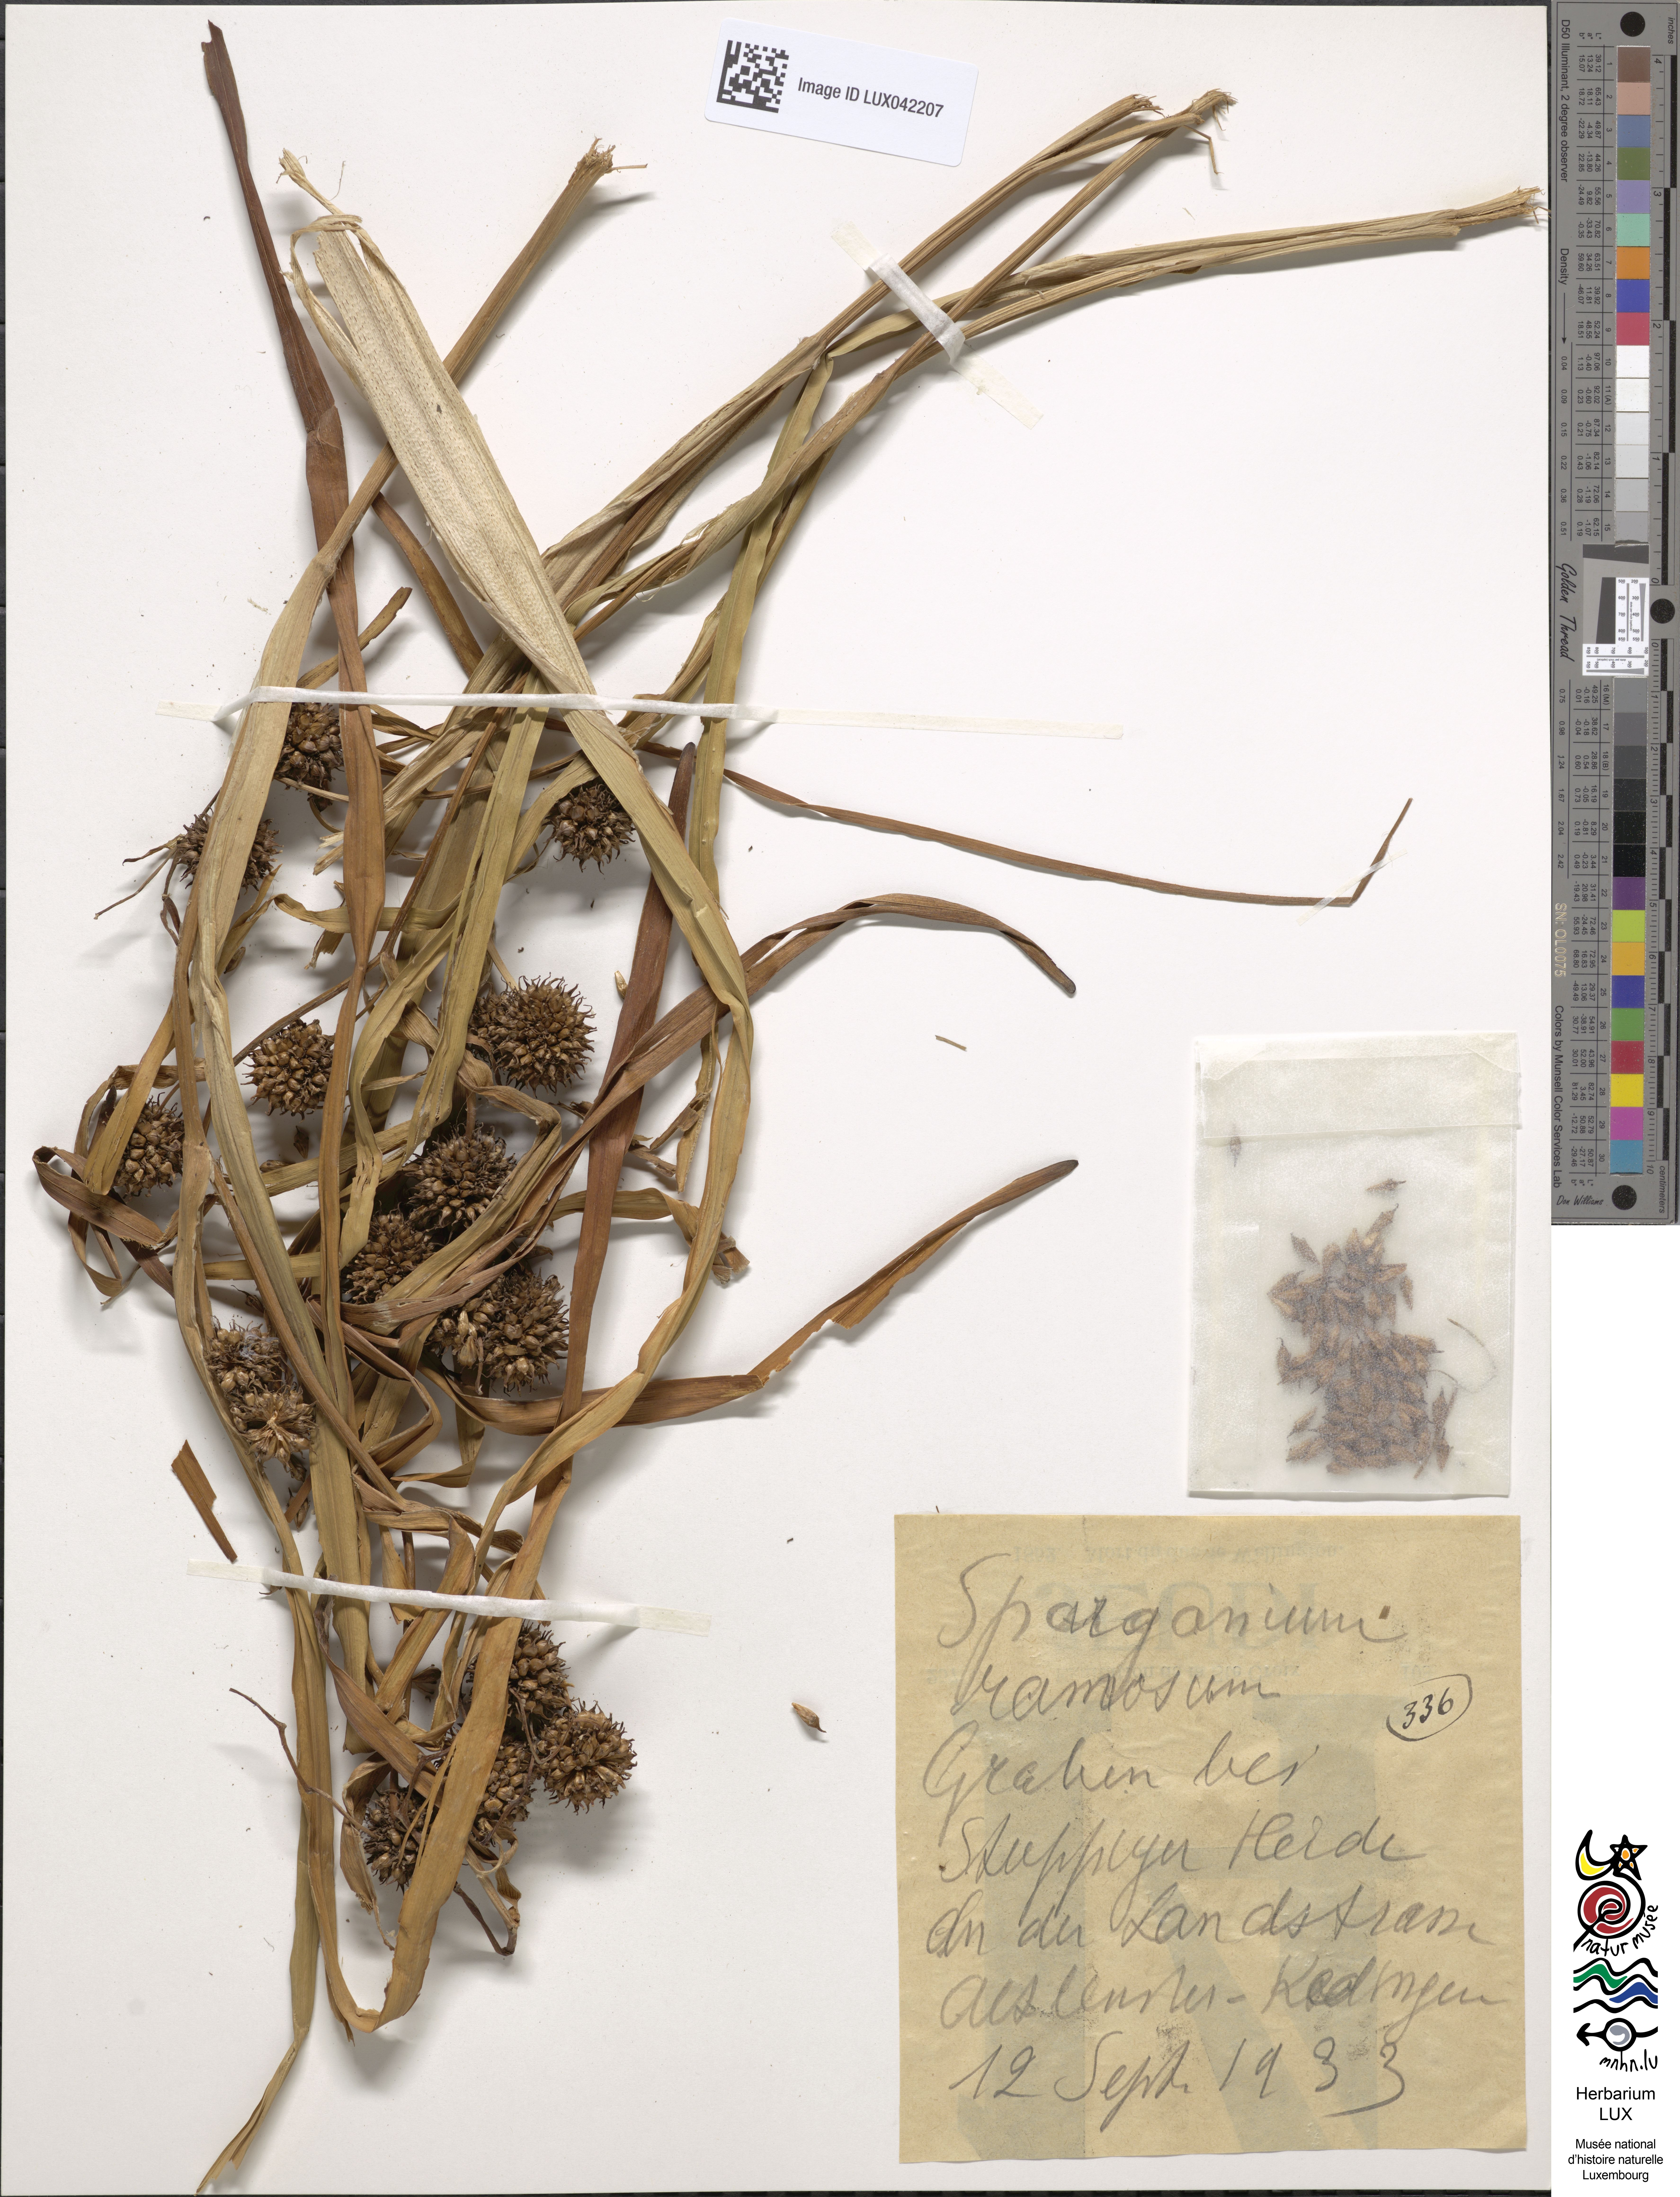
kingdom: Plantae
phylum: Tracheophyta
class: Liliopsida
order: Poales
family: Typhaceae
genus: Sparganium
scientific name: Sparganium erectum
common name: Branched bur-reed
